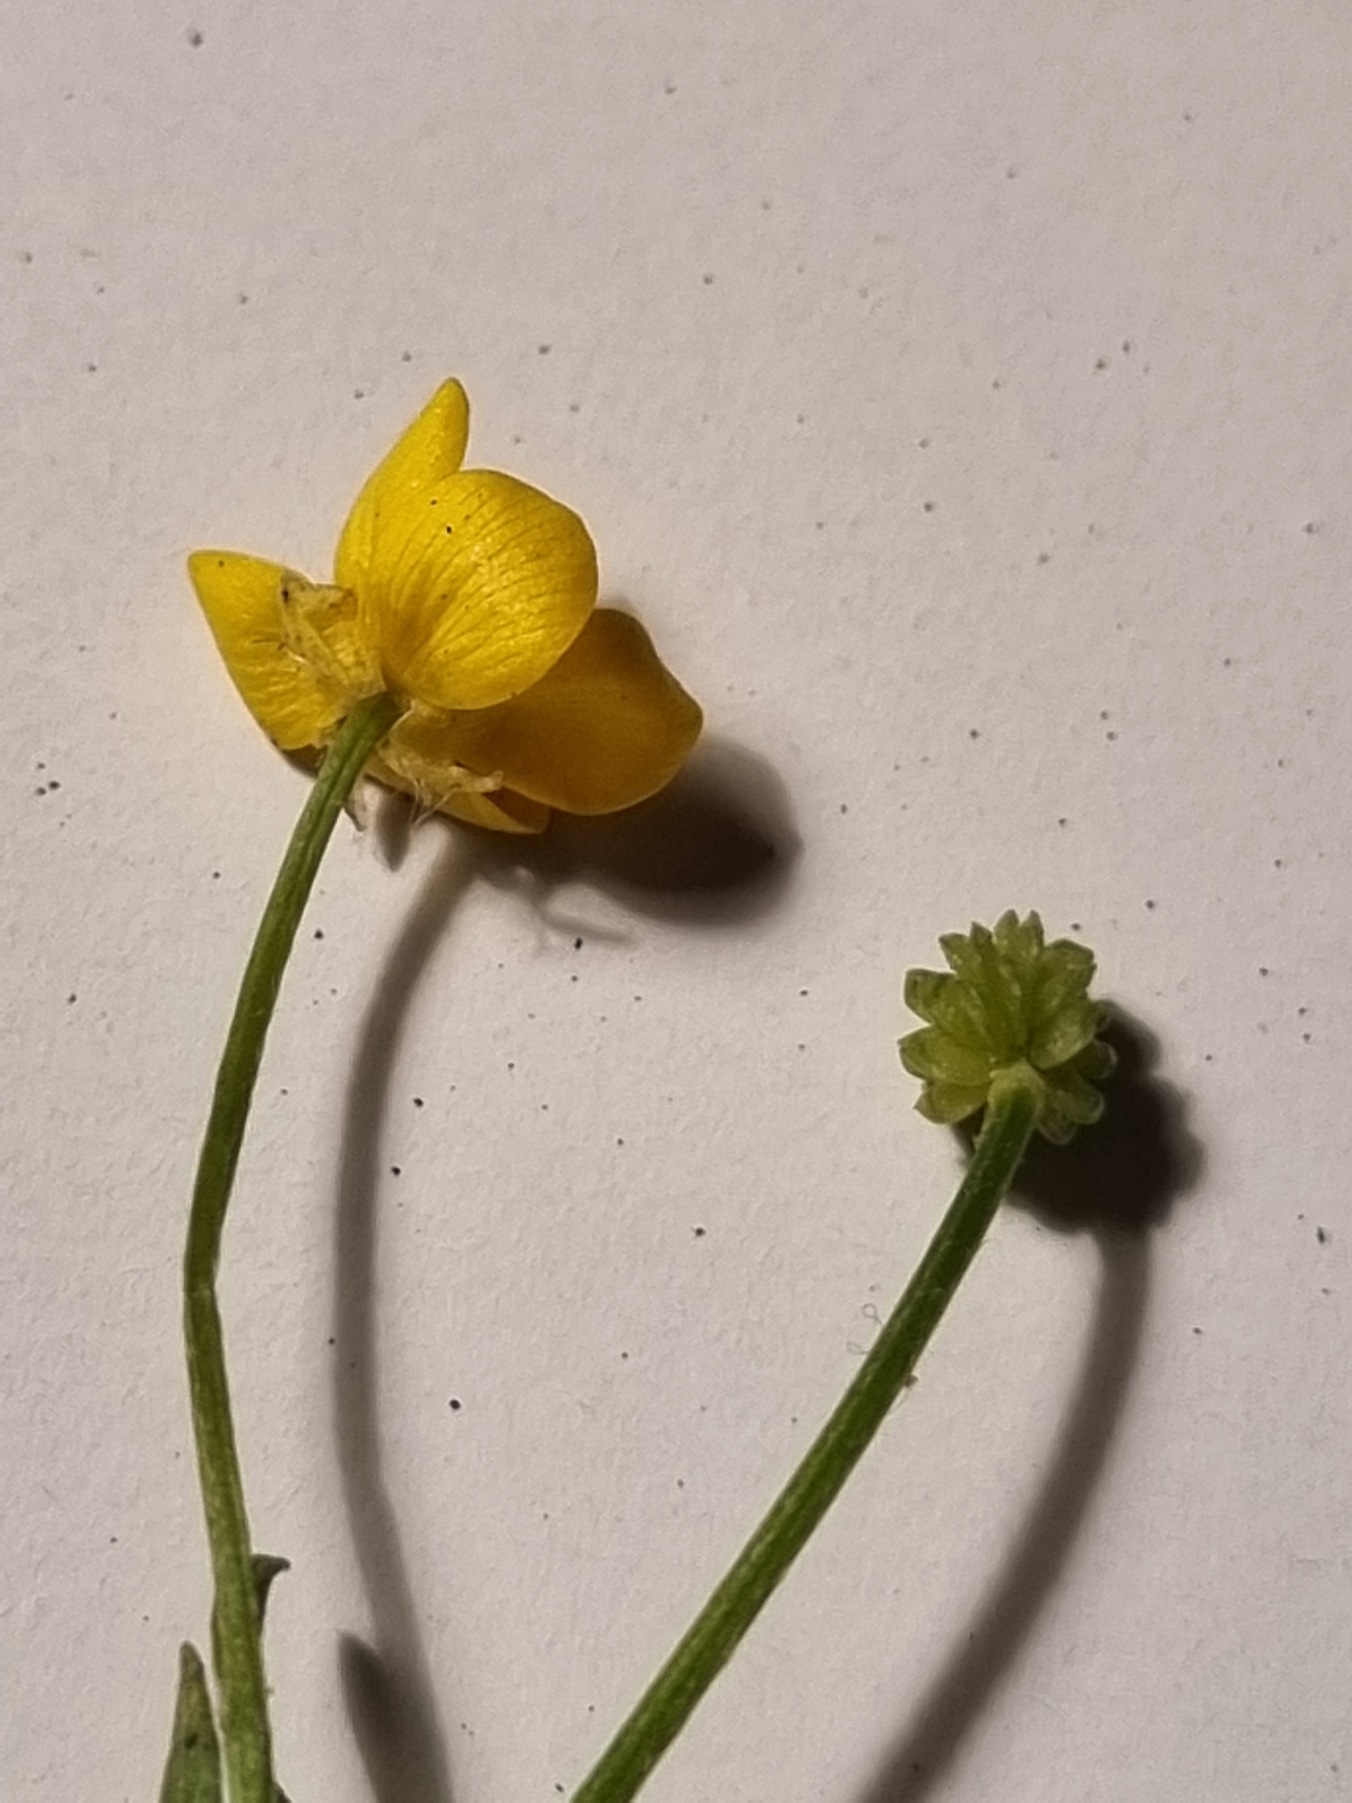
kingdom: Plantae
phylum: Tracheophyta
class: Magnoliopsida
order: Ranunculales
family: Ranunculaceae
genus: Ranunculus
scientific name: Ranunculus sardous
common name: Stivhåret ranunkel
